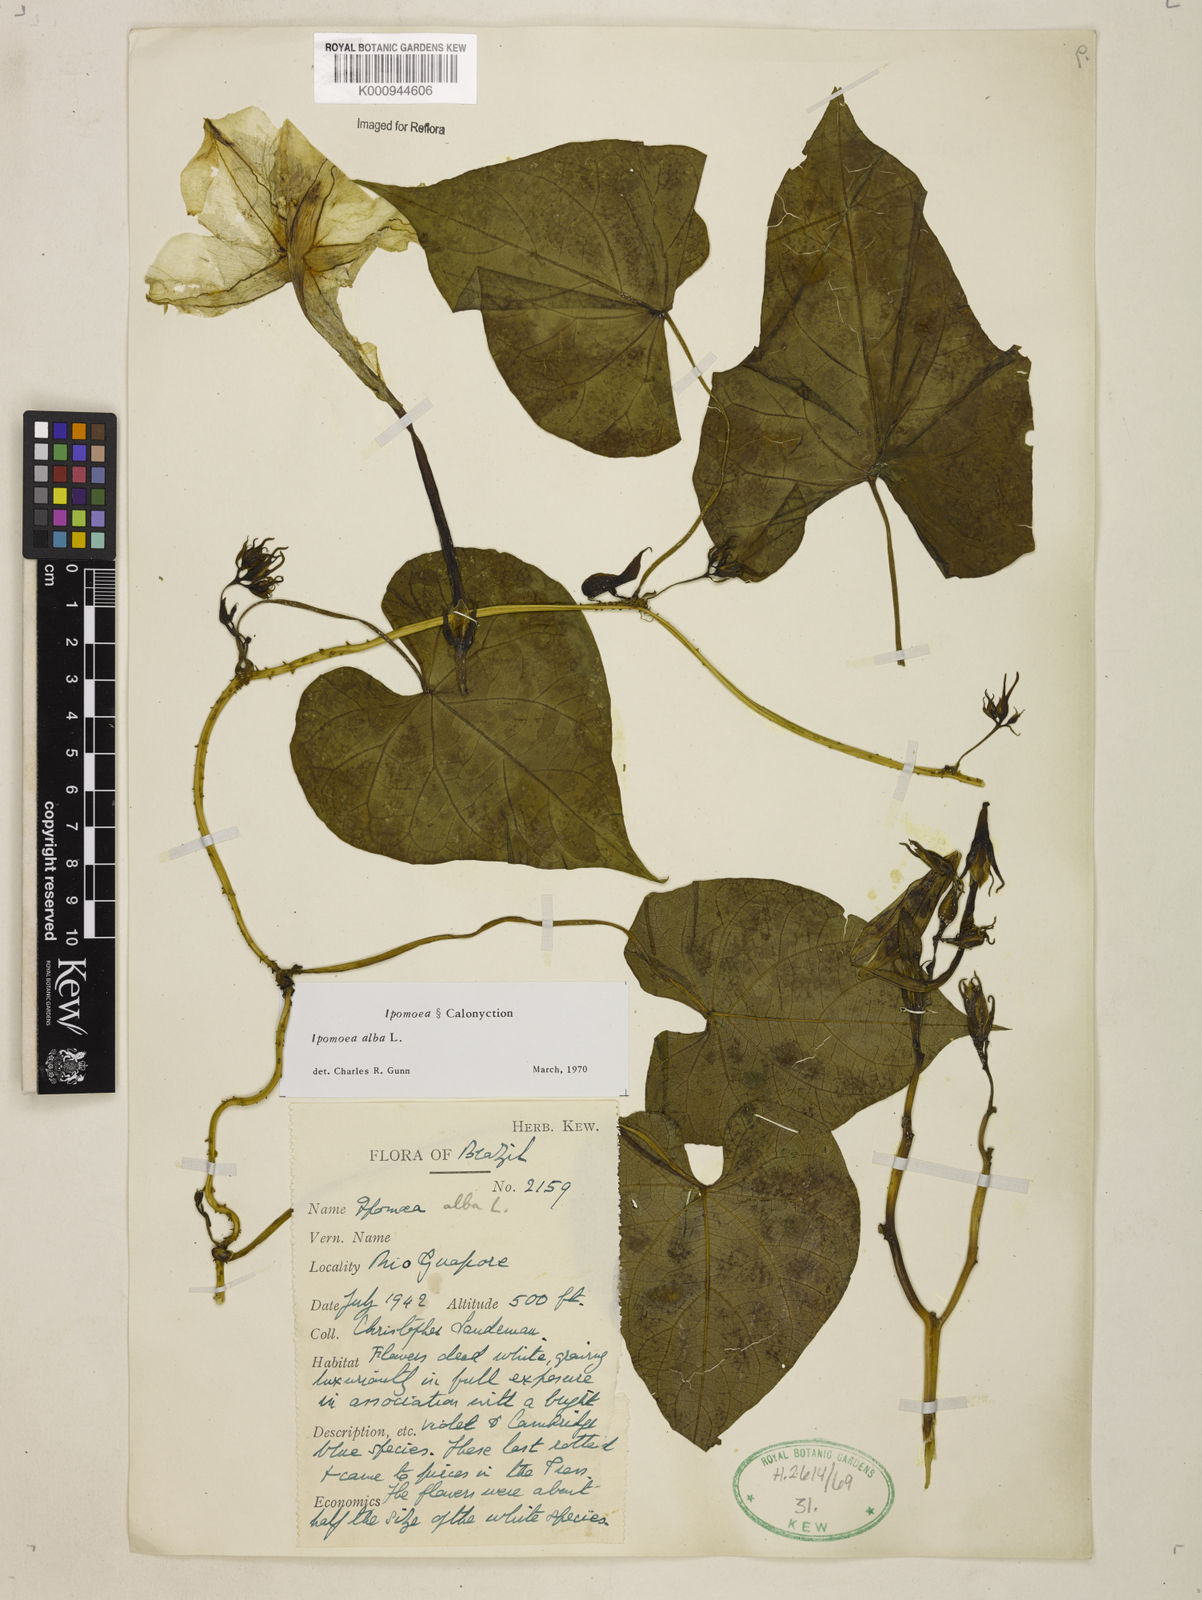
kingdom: Plantae
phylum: Tracheophyta
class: Magnoliopsida
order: Solanales
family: Convolvulaceae
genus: Ipomoea
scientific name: Ipomoea
